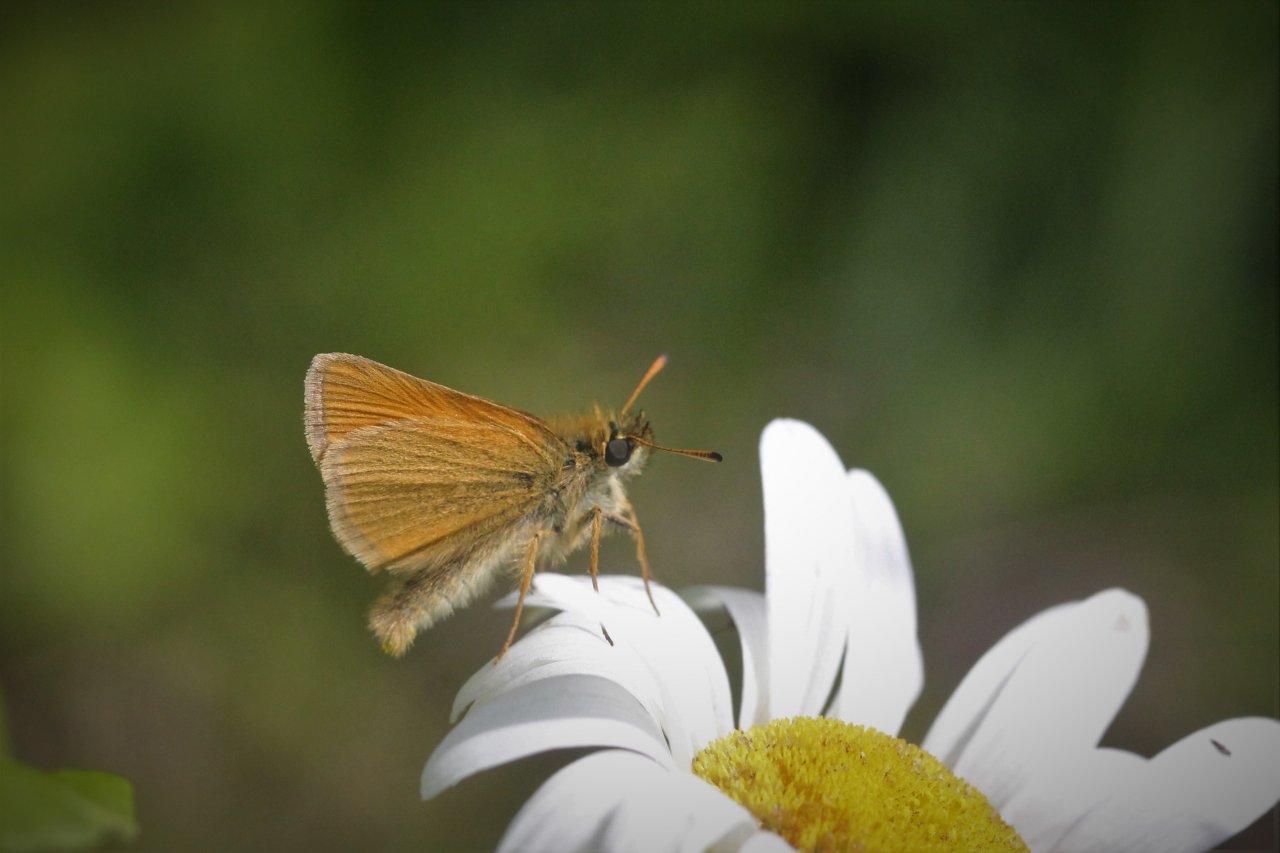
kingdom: Animalia
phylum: Arthropoda
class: Insecta
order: Lepidoptera
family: Hesperiidae
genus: Thymelicus
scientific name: Thymelicus lineola
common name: European Skipper
